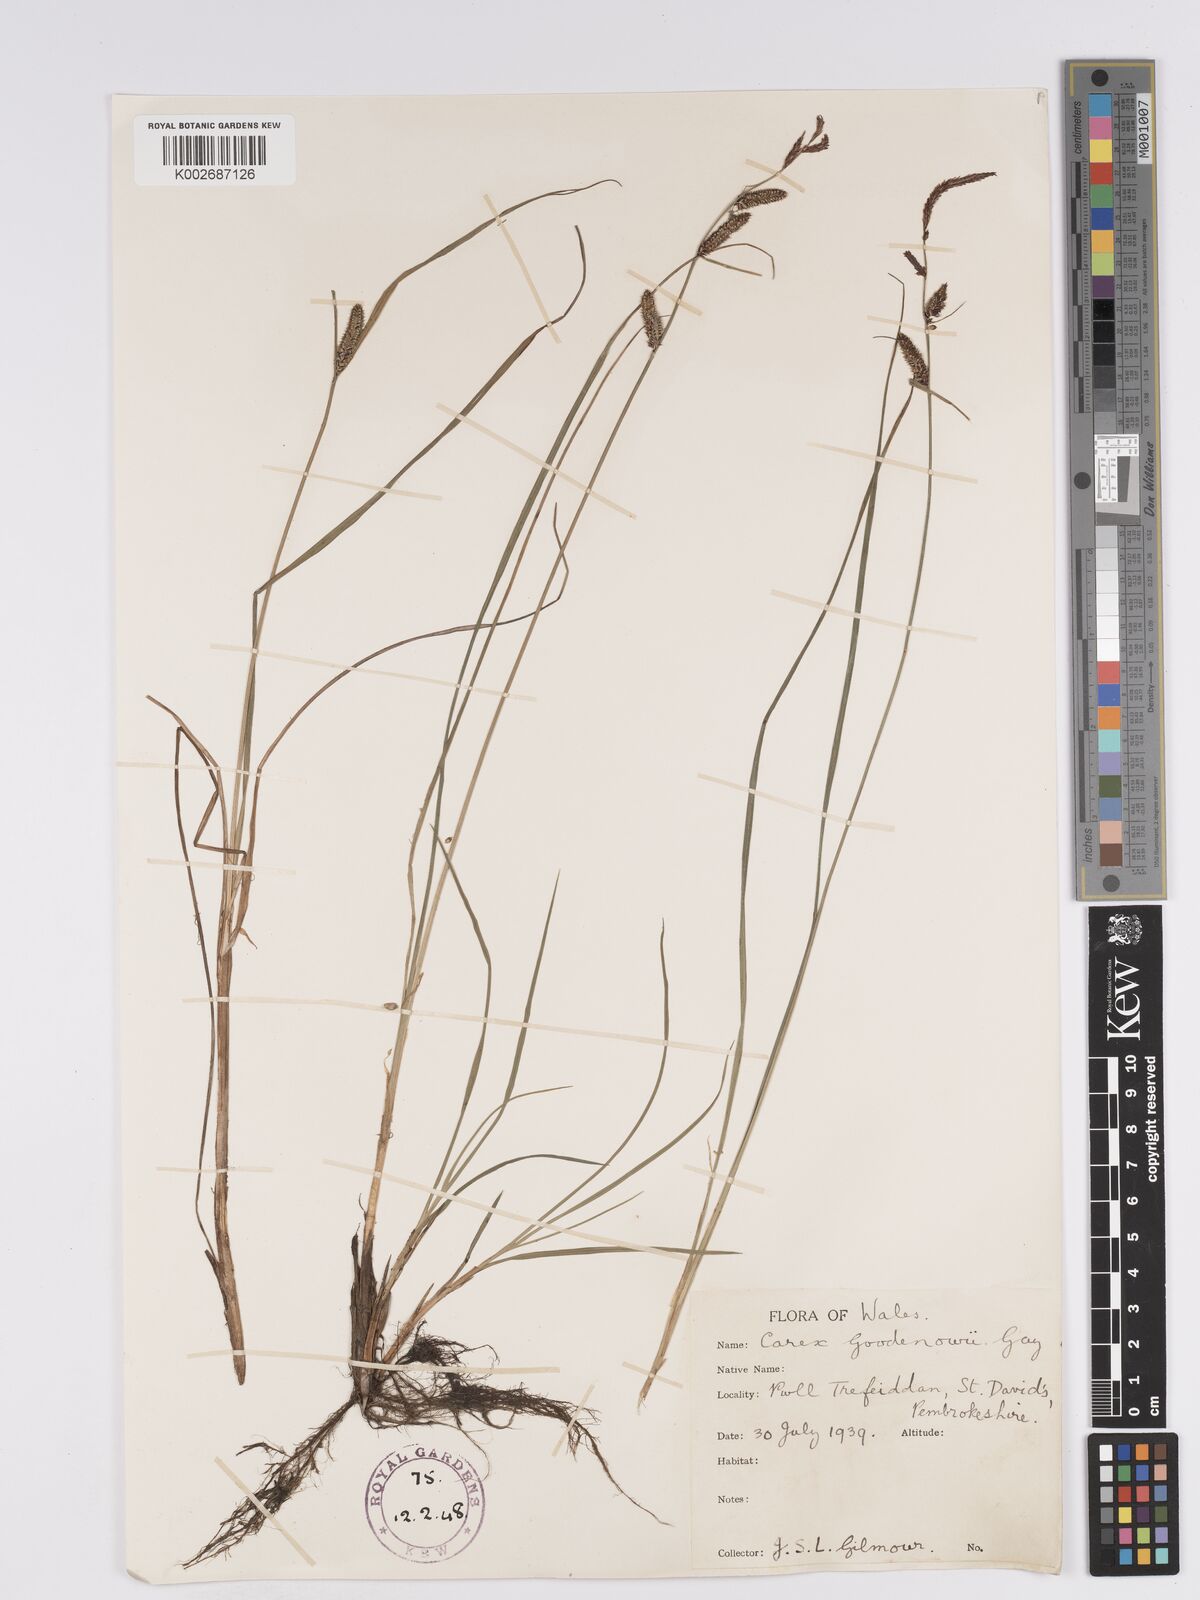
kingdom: Plantae
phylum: Tracheophyta
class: Liliopsida
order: Poales
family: Cyperaceae
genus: Carex
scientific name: Carex nigra
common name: Common sedge
